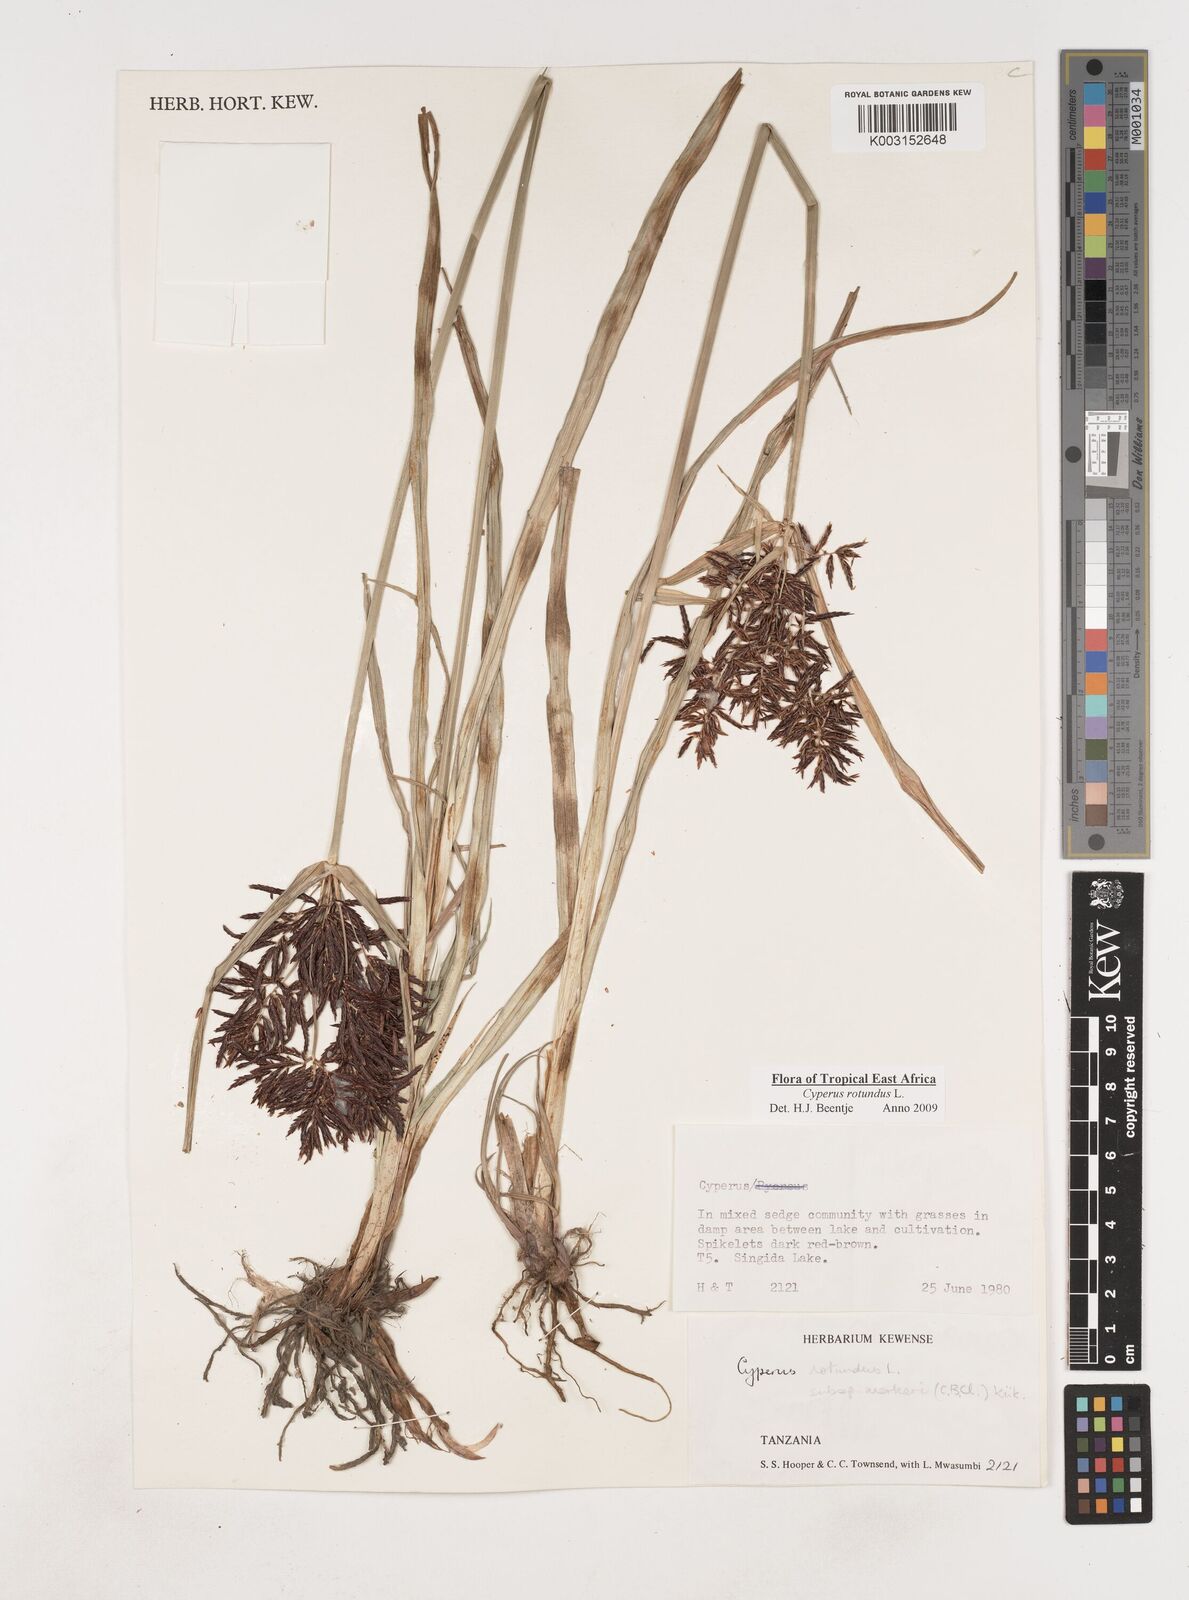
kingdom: Plantae
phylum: Tracheophyta
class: Liliopsida
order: Poales
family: Cyperaceae
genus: Cyperus
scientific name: Cyperus rotundus
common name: Nutgrass
